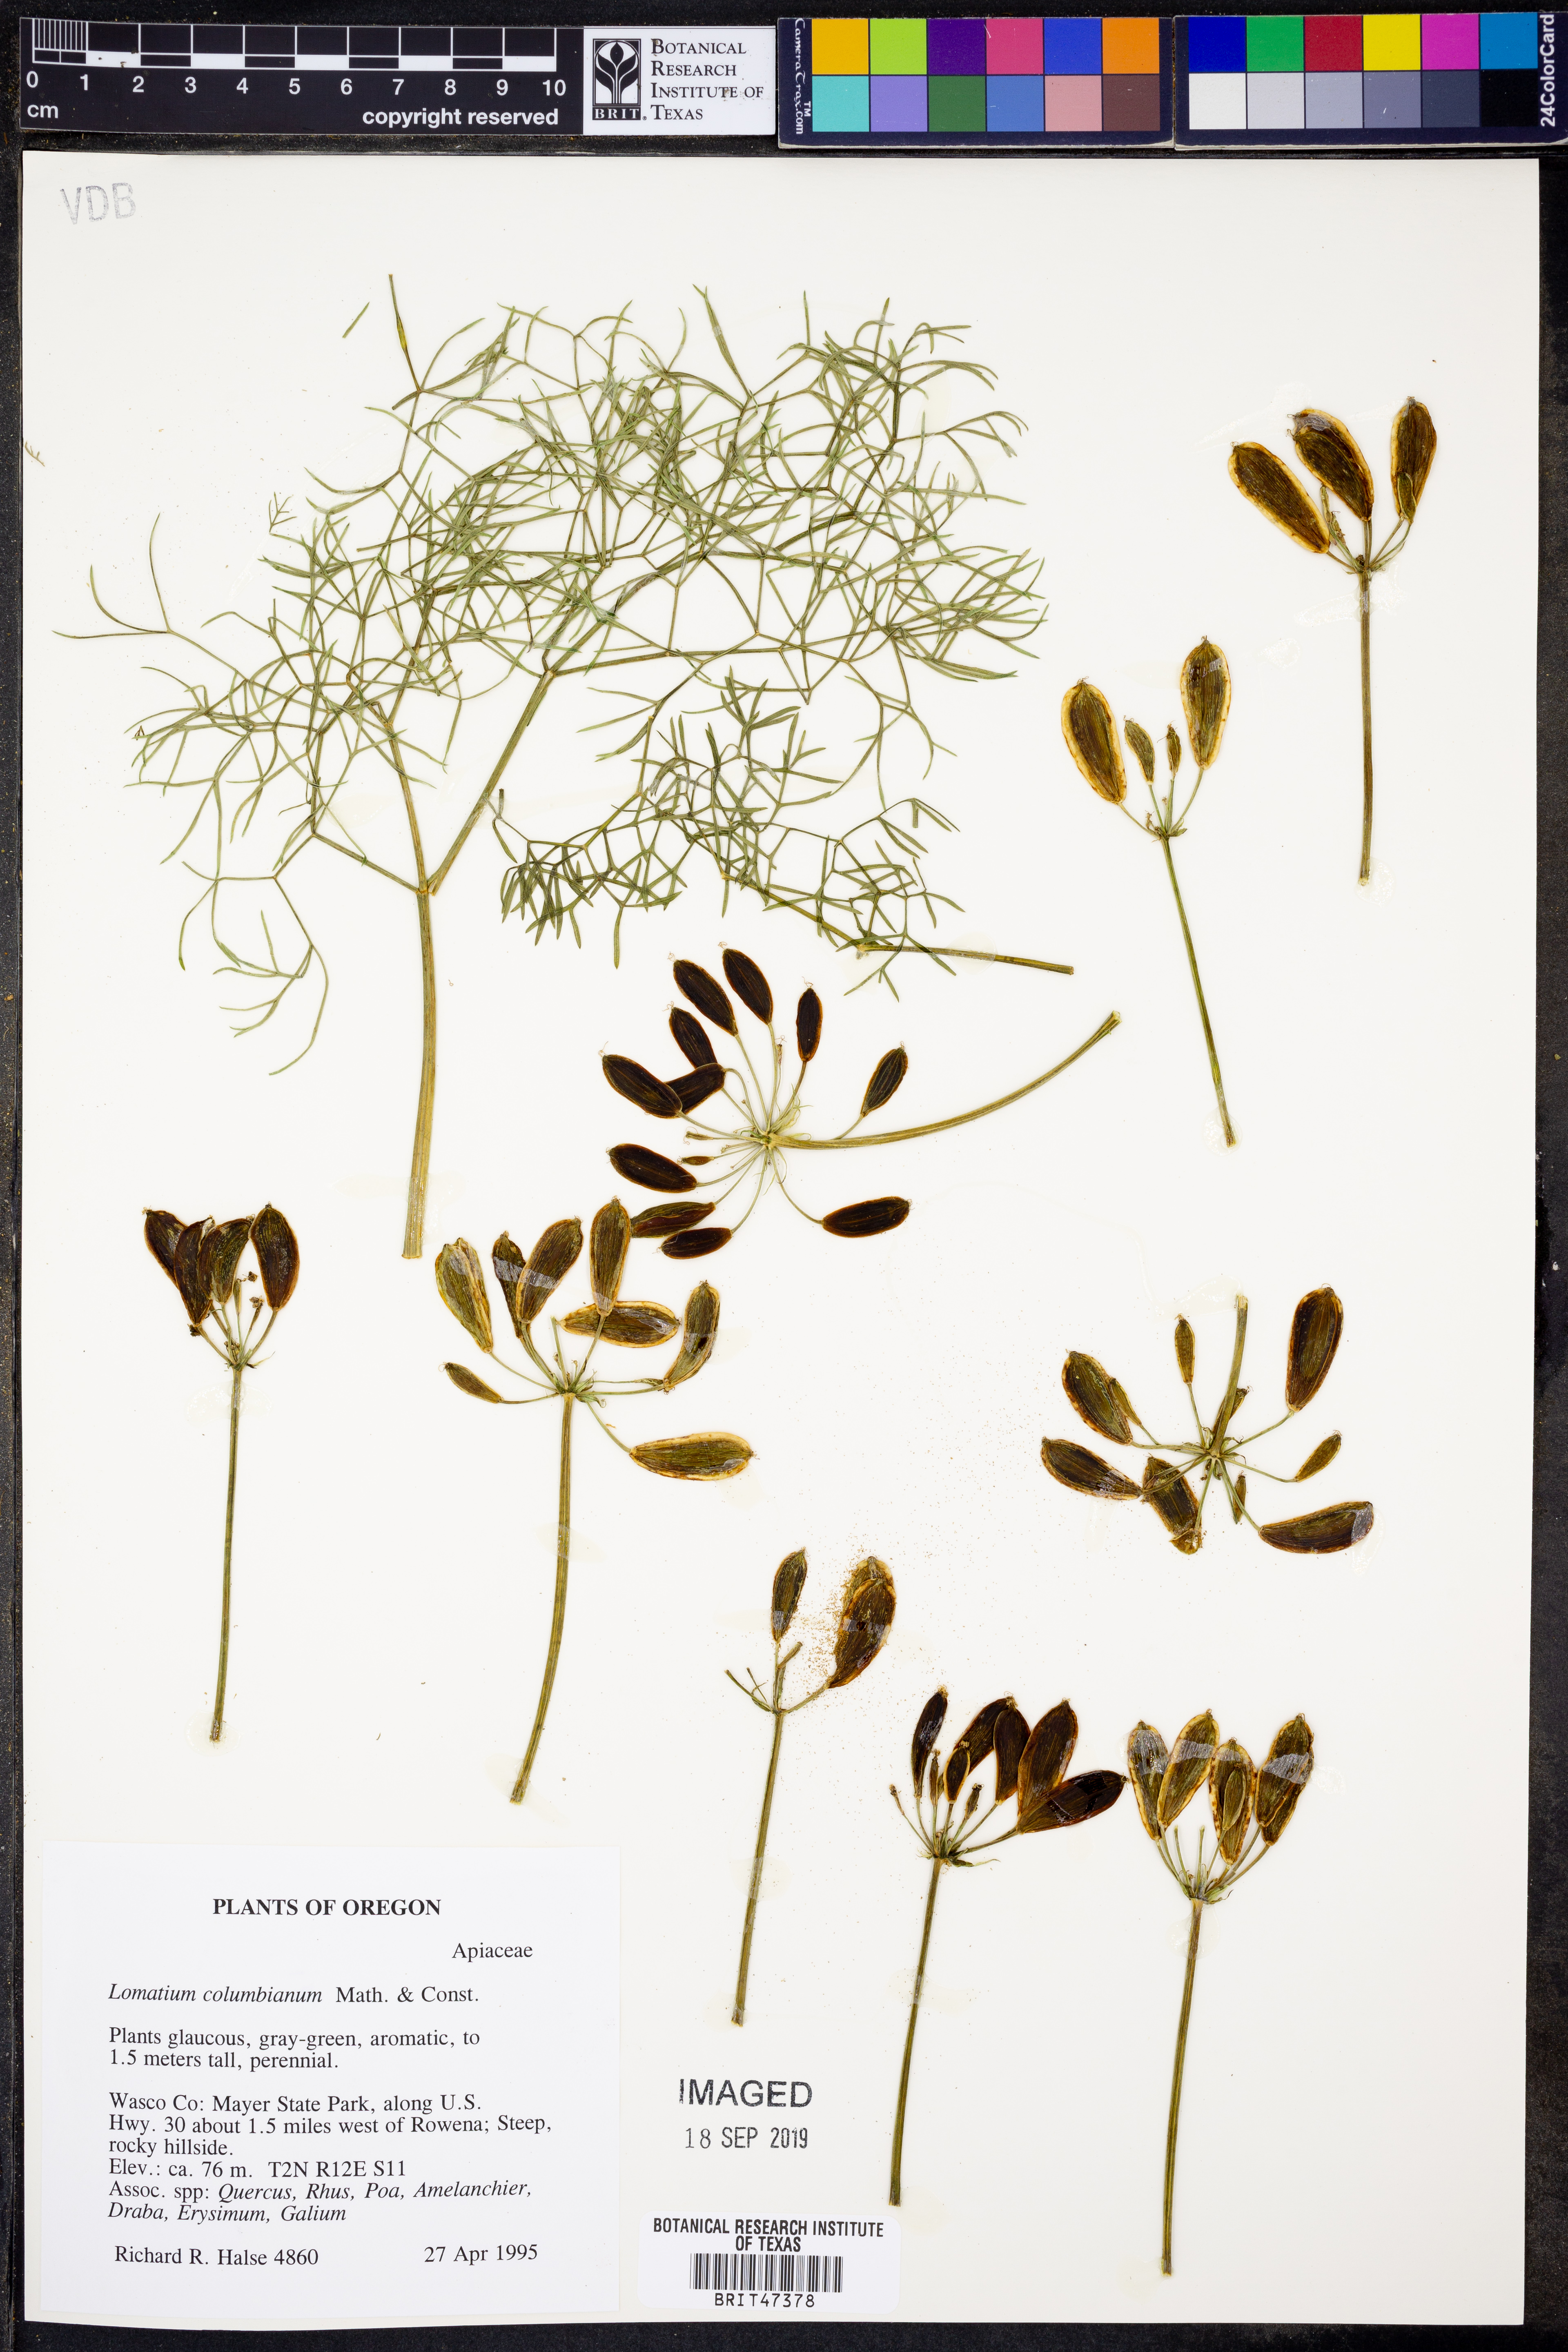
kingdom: Plantae
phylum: Tracheophyta
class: Magnoliopsida
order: Apiales
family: Apiaceae
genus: Lomatium
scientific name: Lomatium columbianum
